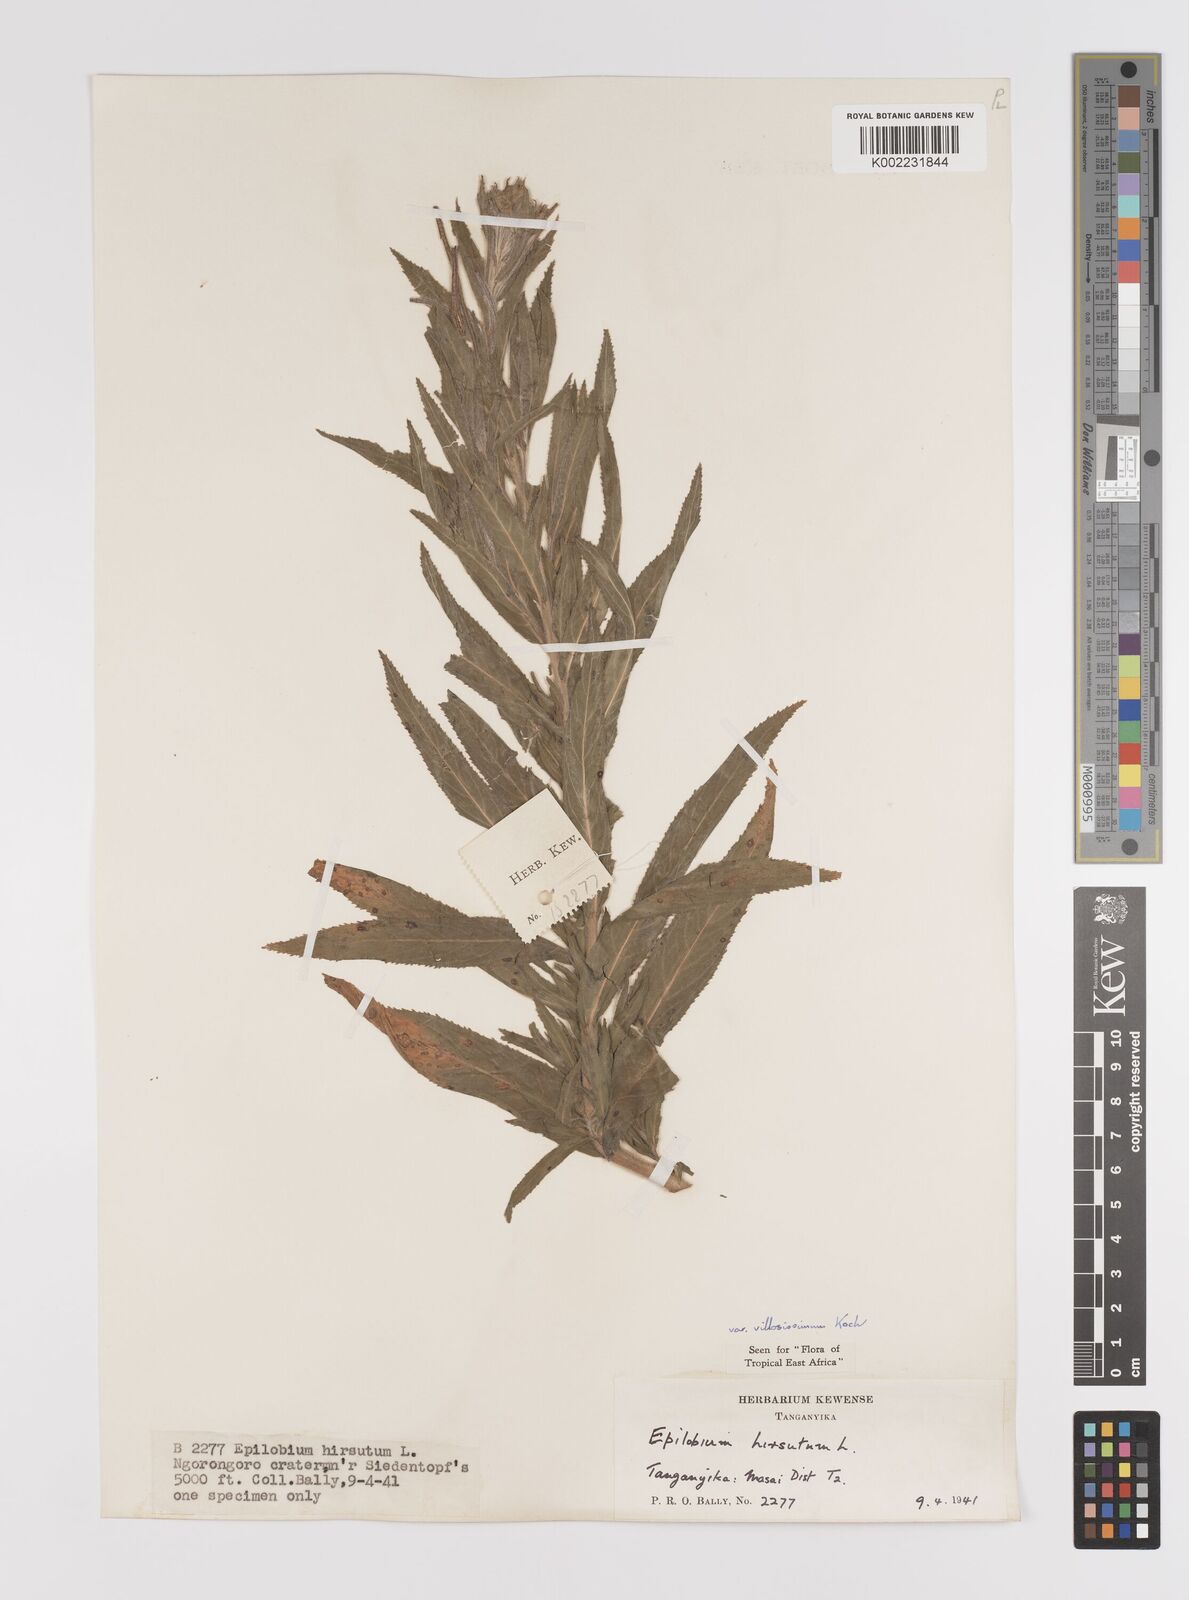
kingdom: Plantae
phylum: Tracheophyta
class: Magnoliopsida
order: Myrtales
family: Onagraceae
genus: Epilobium
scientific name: Epilobium hirsutum
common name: Great willowherb
